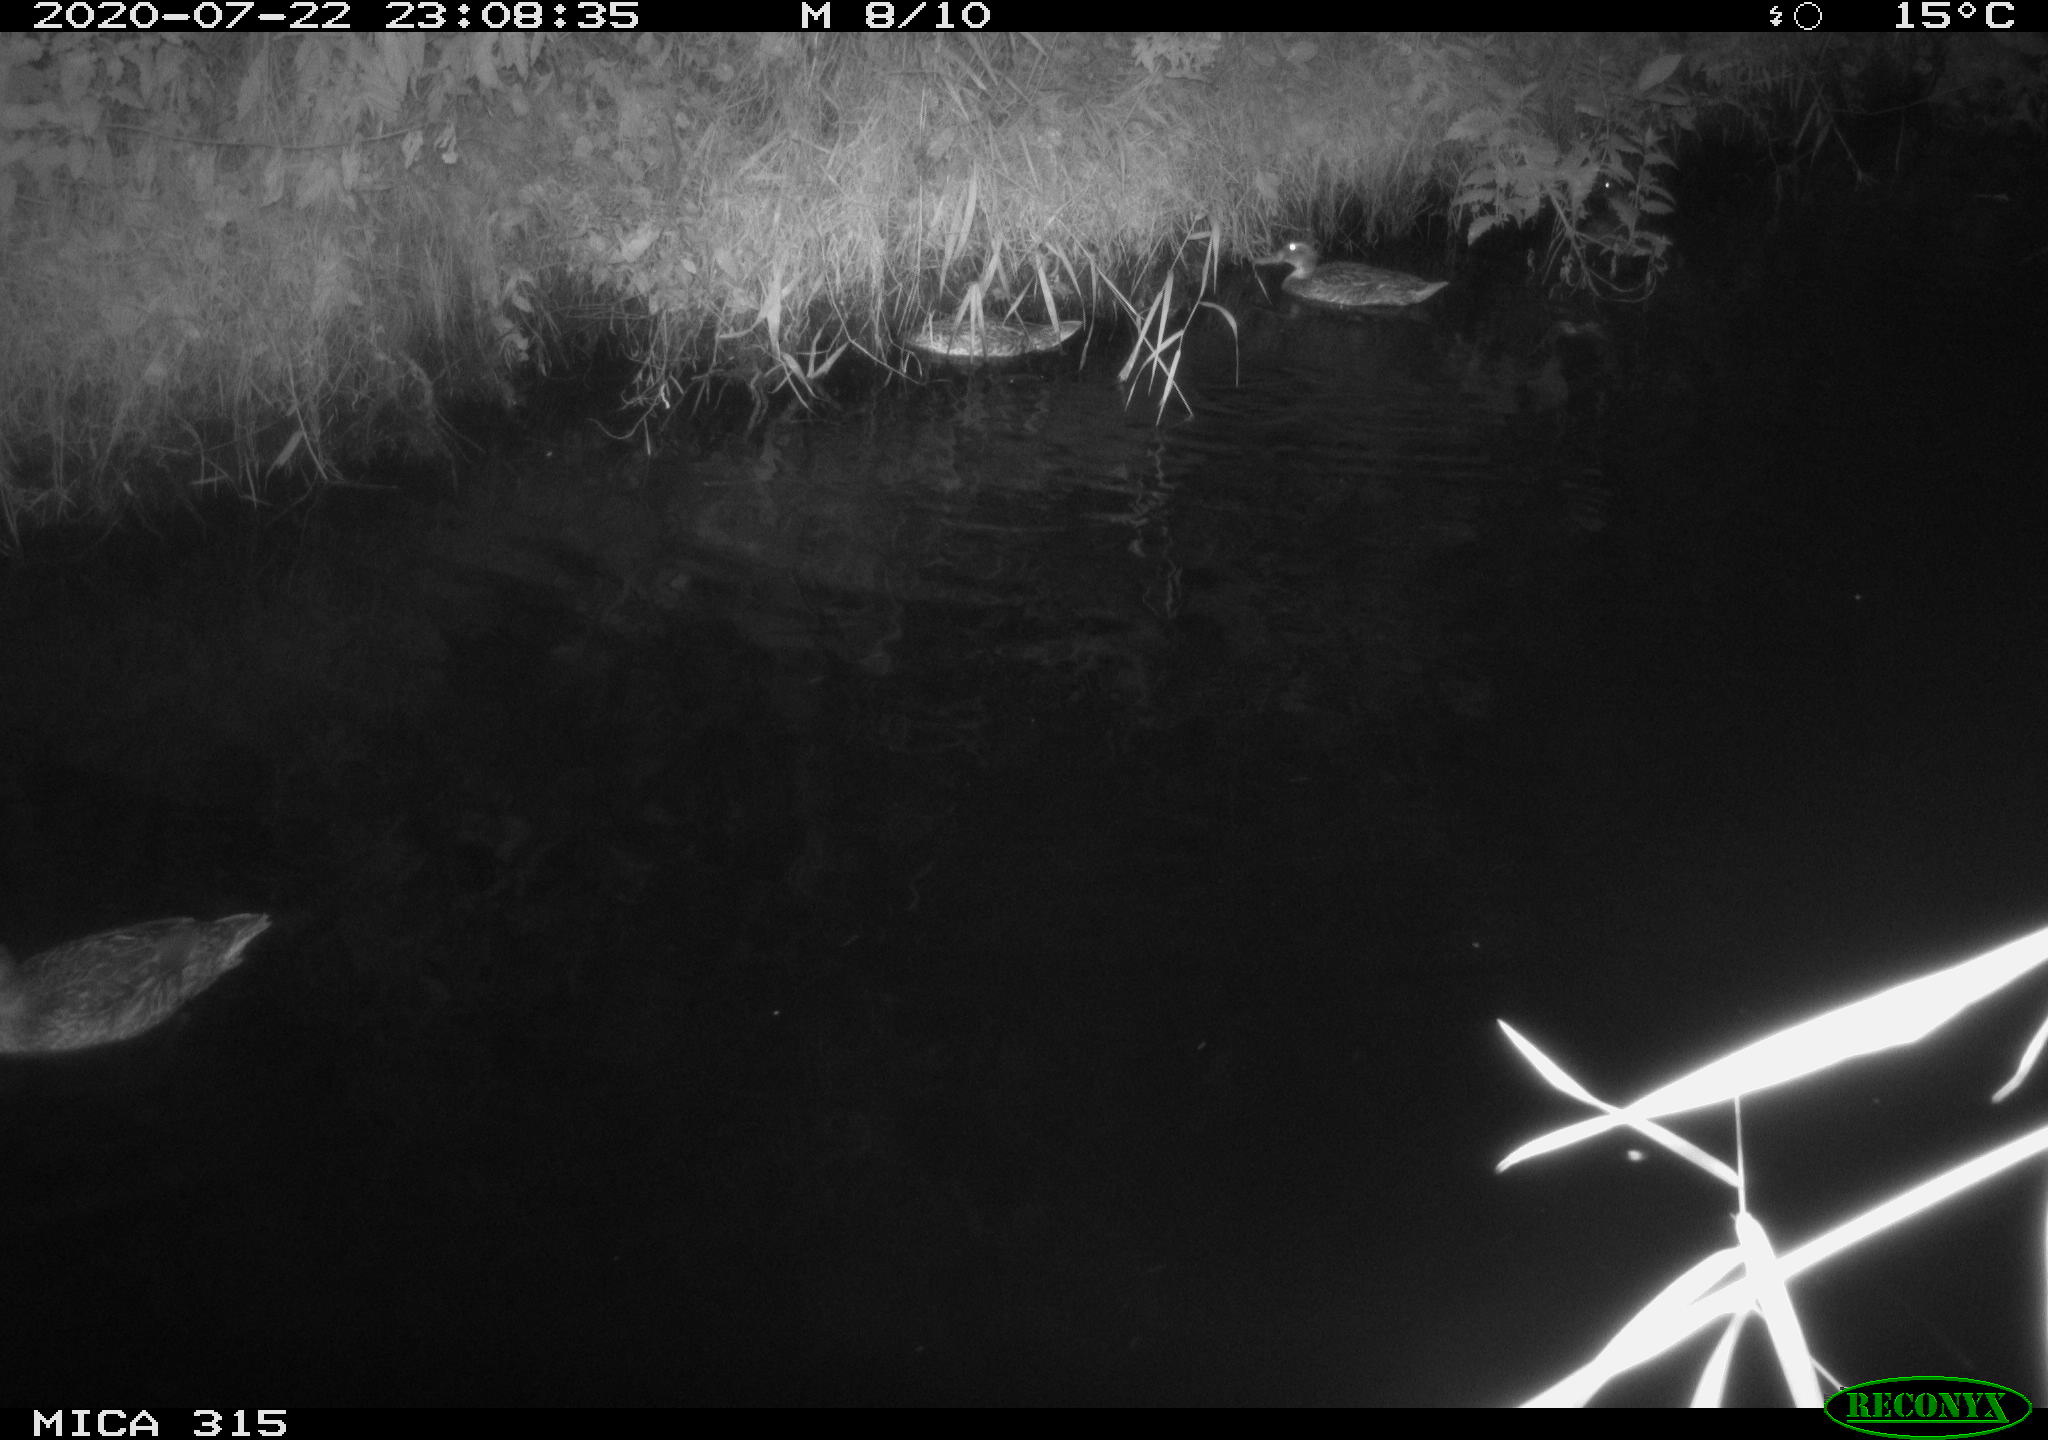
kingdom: Animalia
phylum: Chordata
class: Aves
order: Anseriformes
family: Anatidae
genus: Anas
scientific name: Anas platyrhynchos
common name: Mallard
